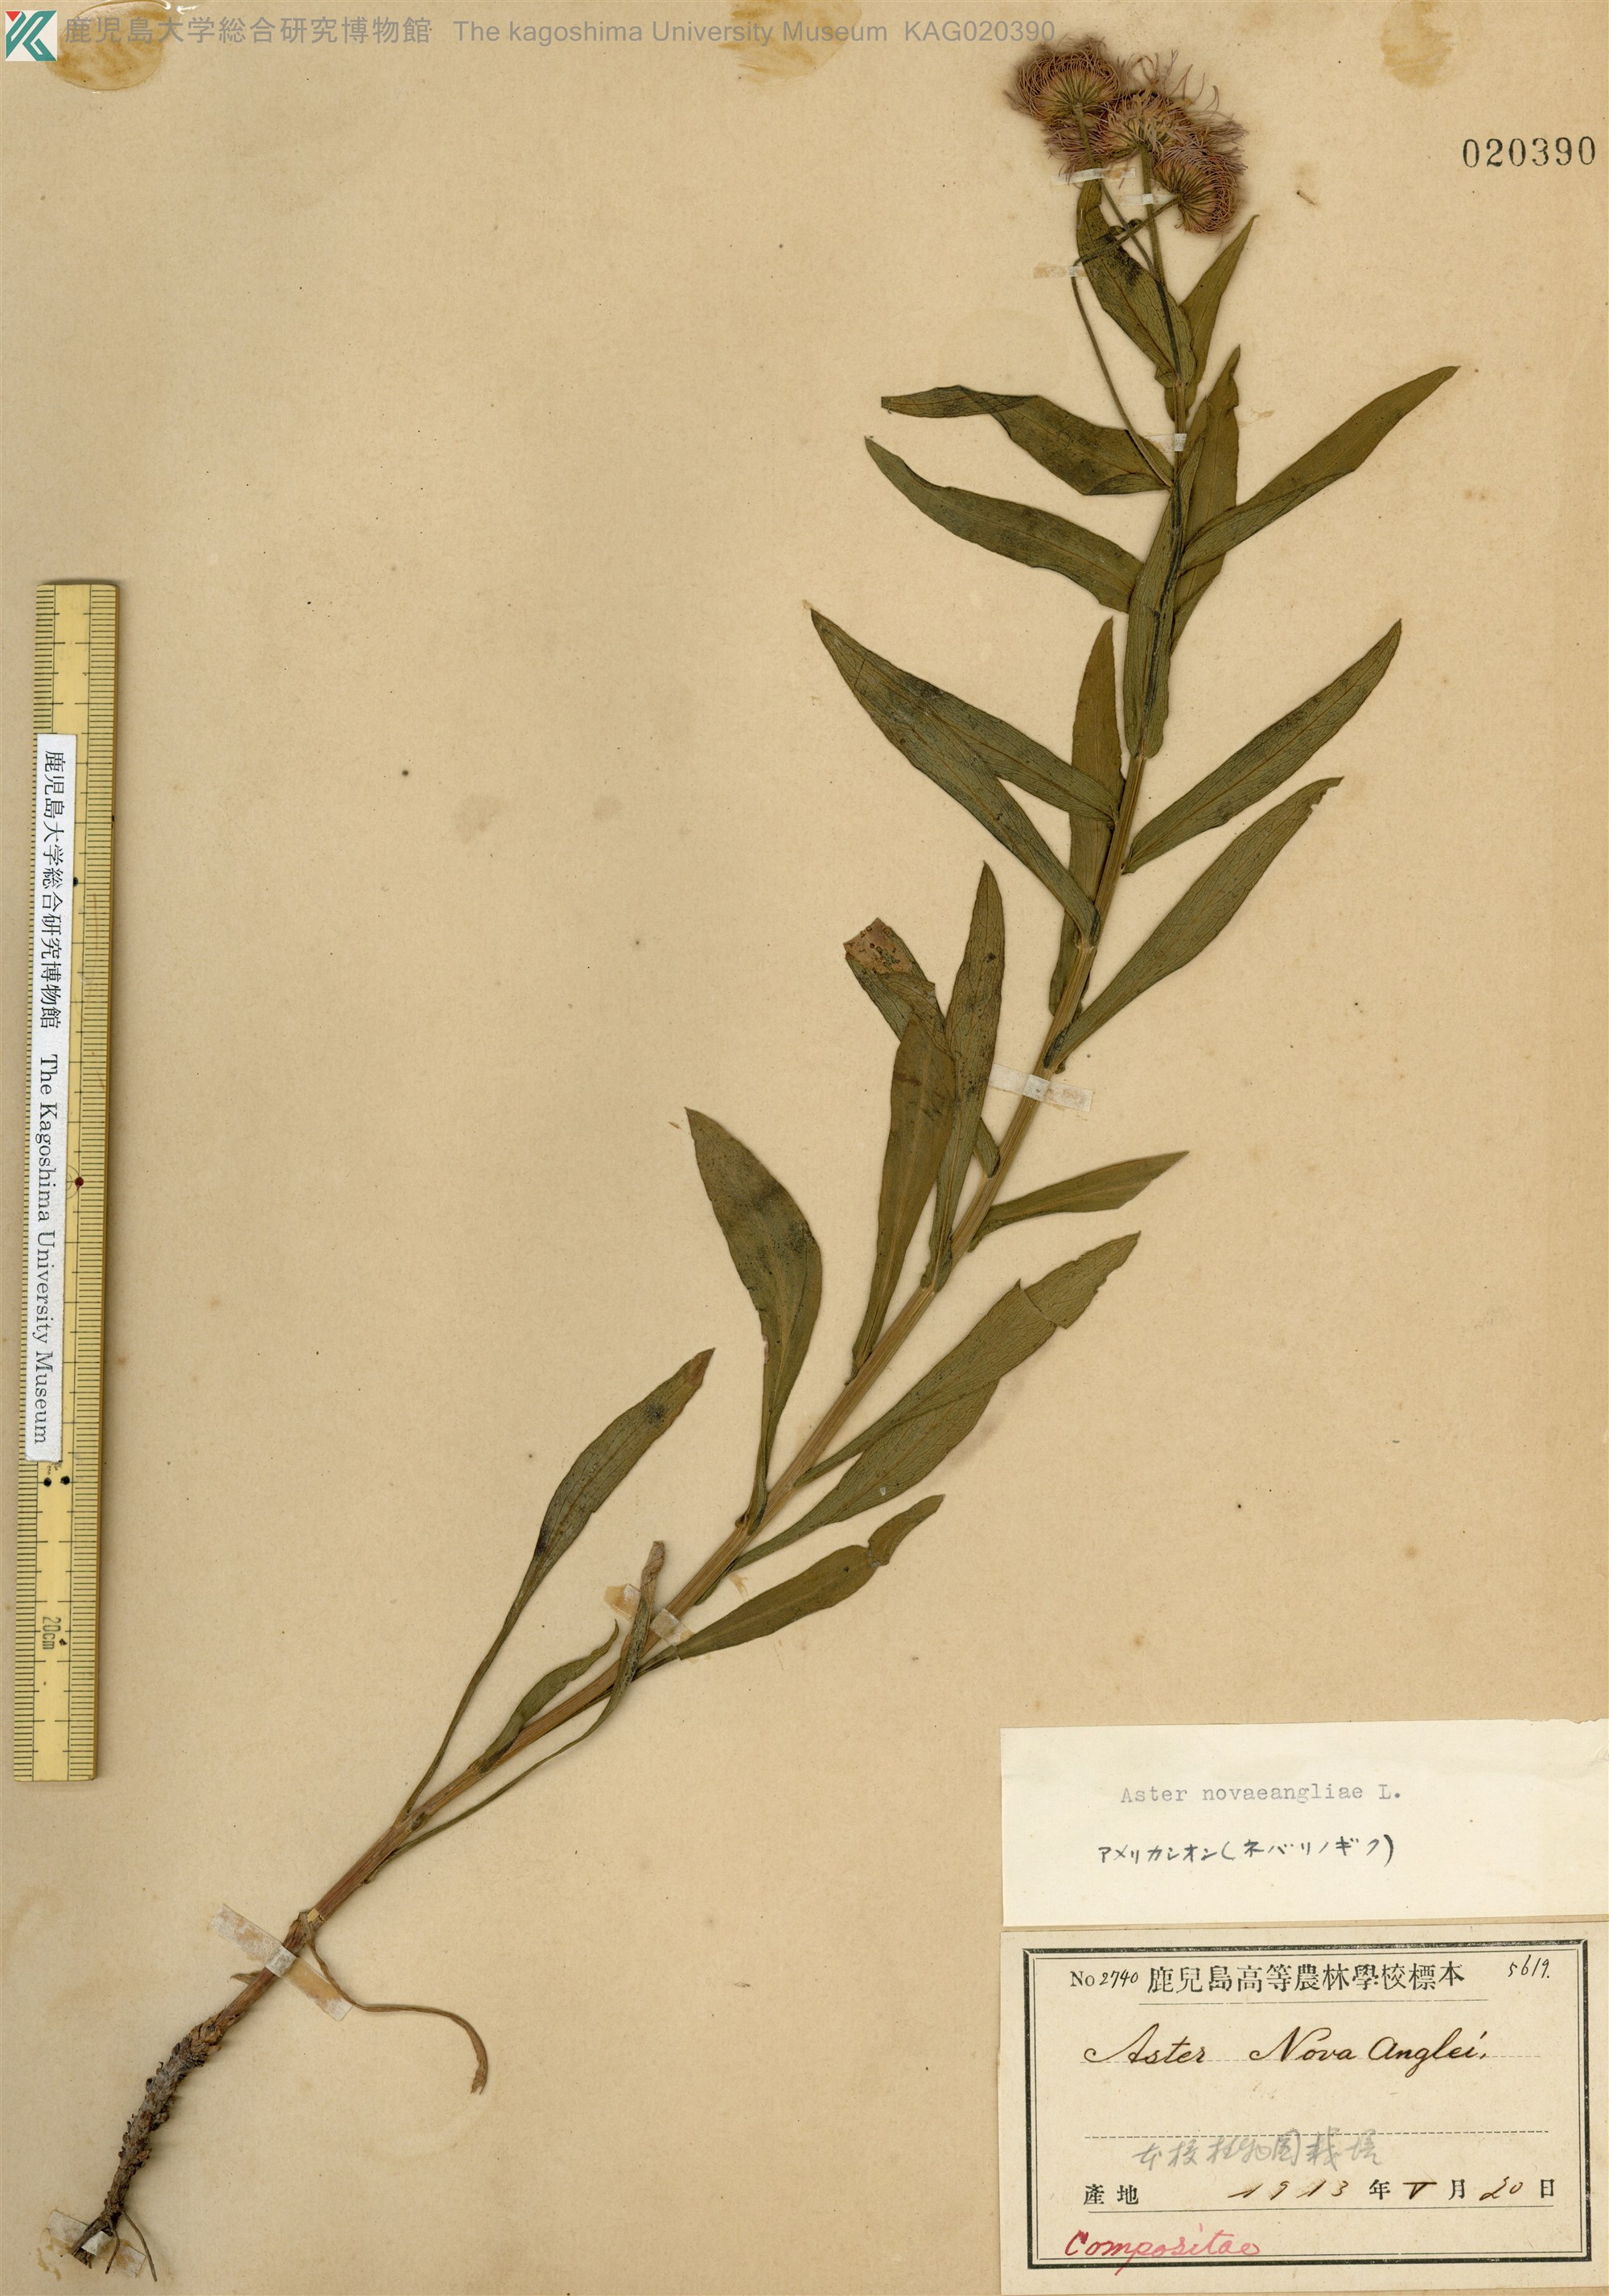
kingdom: Plantae
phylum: Tracheophyta
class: Magnoliopsida
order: Asterales
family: Asteraceae
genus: Symphyotrichum
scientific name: Symphyotrichum novae-angliae
